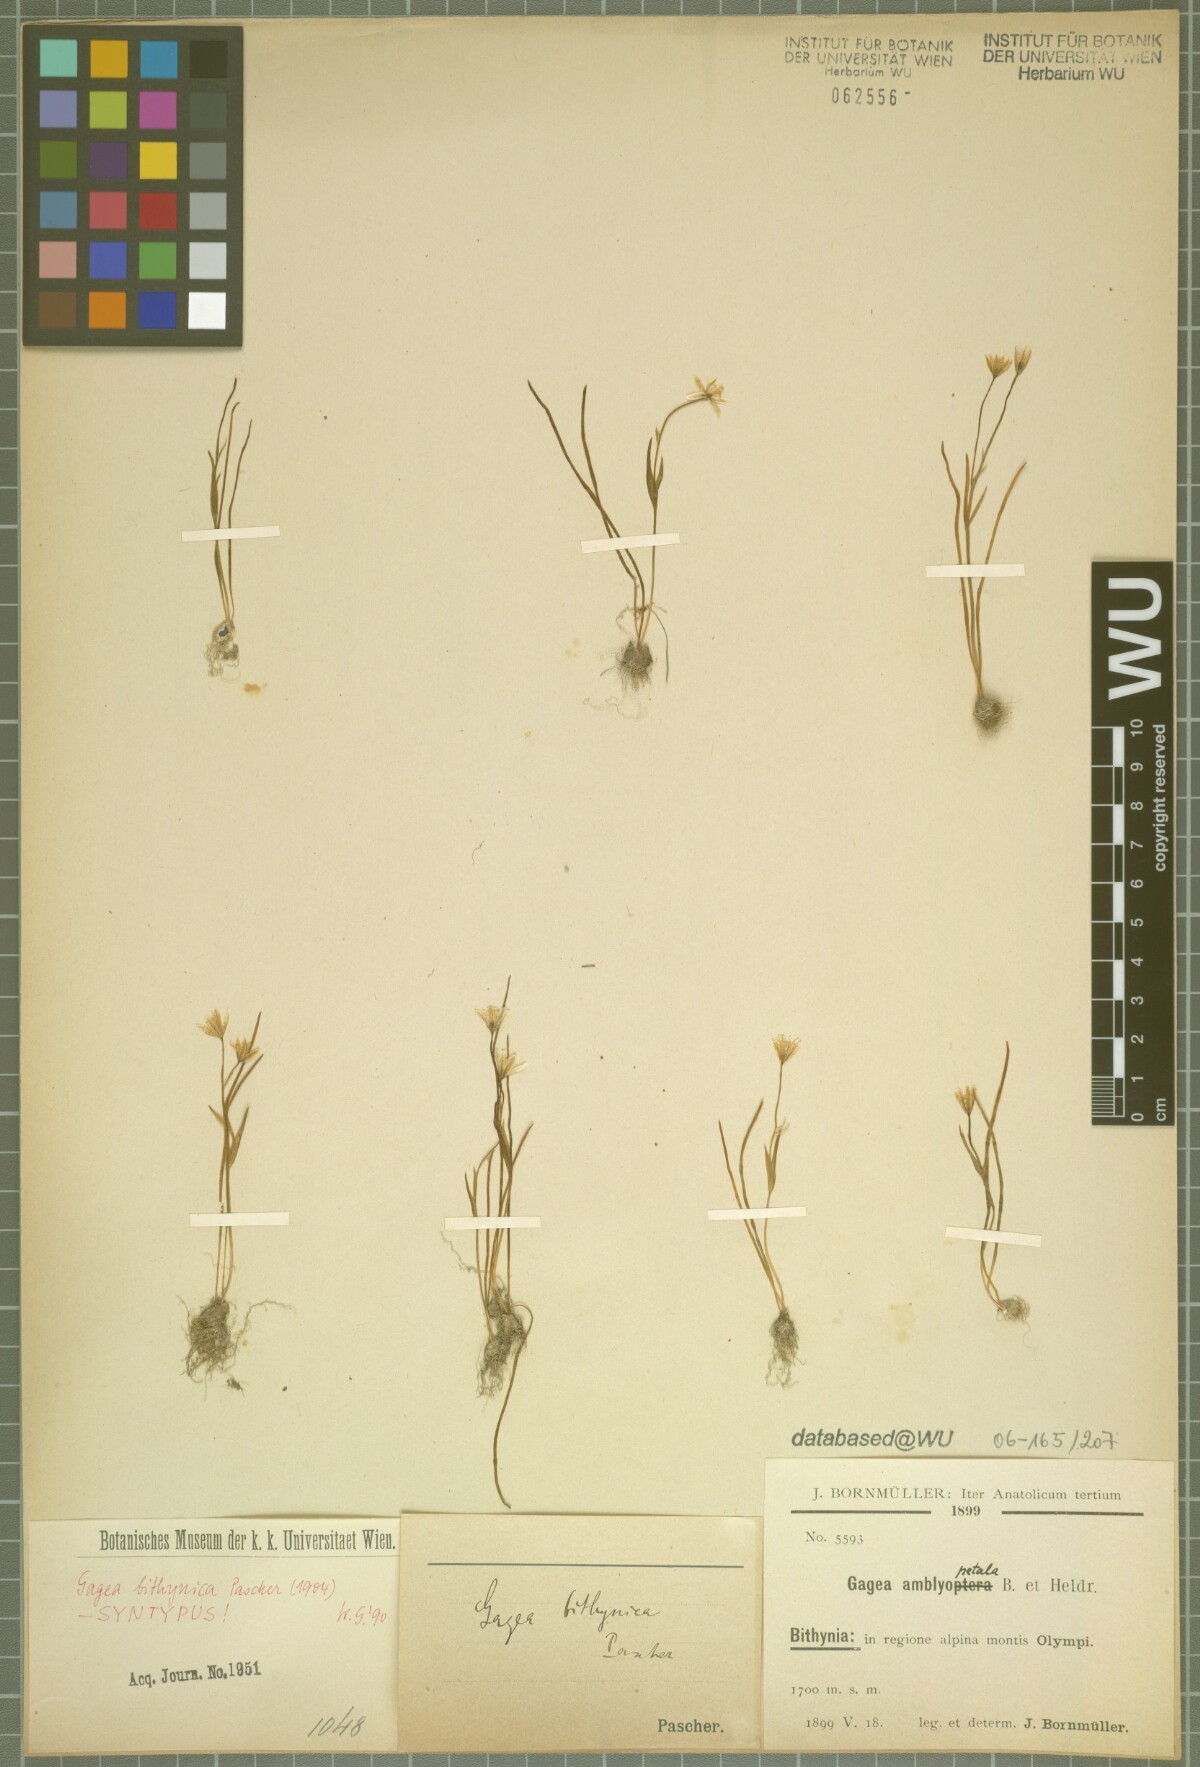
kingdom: Plantae
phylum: Tracheophyta
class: Liliopsida
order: Liliales
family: Liliaceae
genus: Gagea
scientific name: Gagea bithynica
